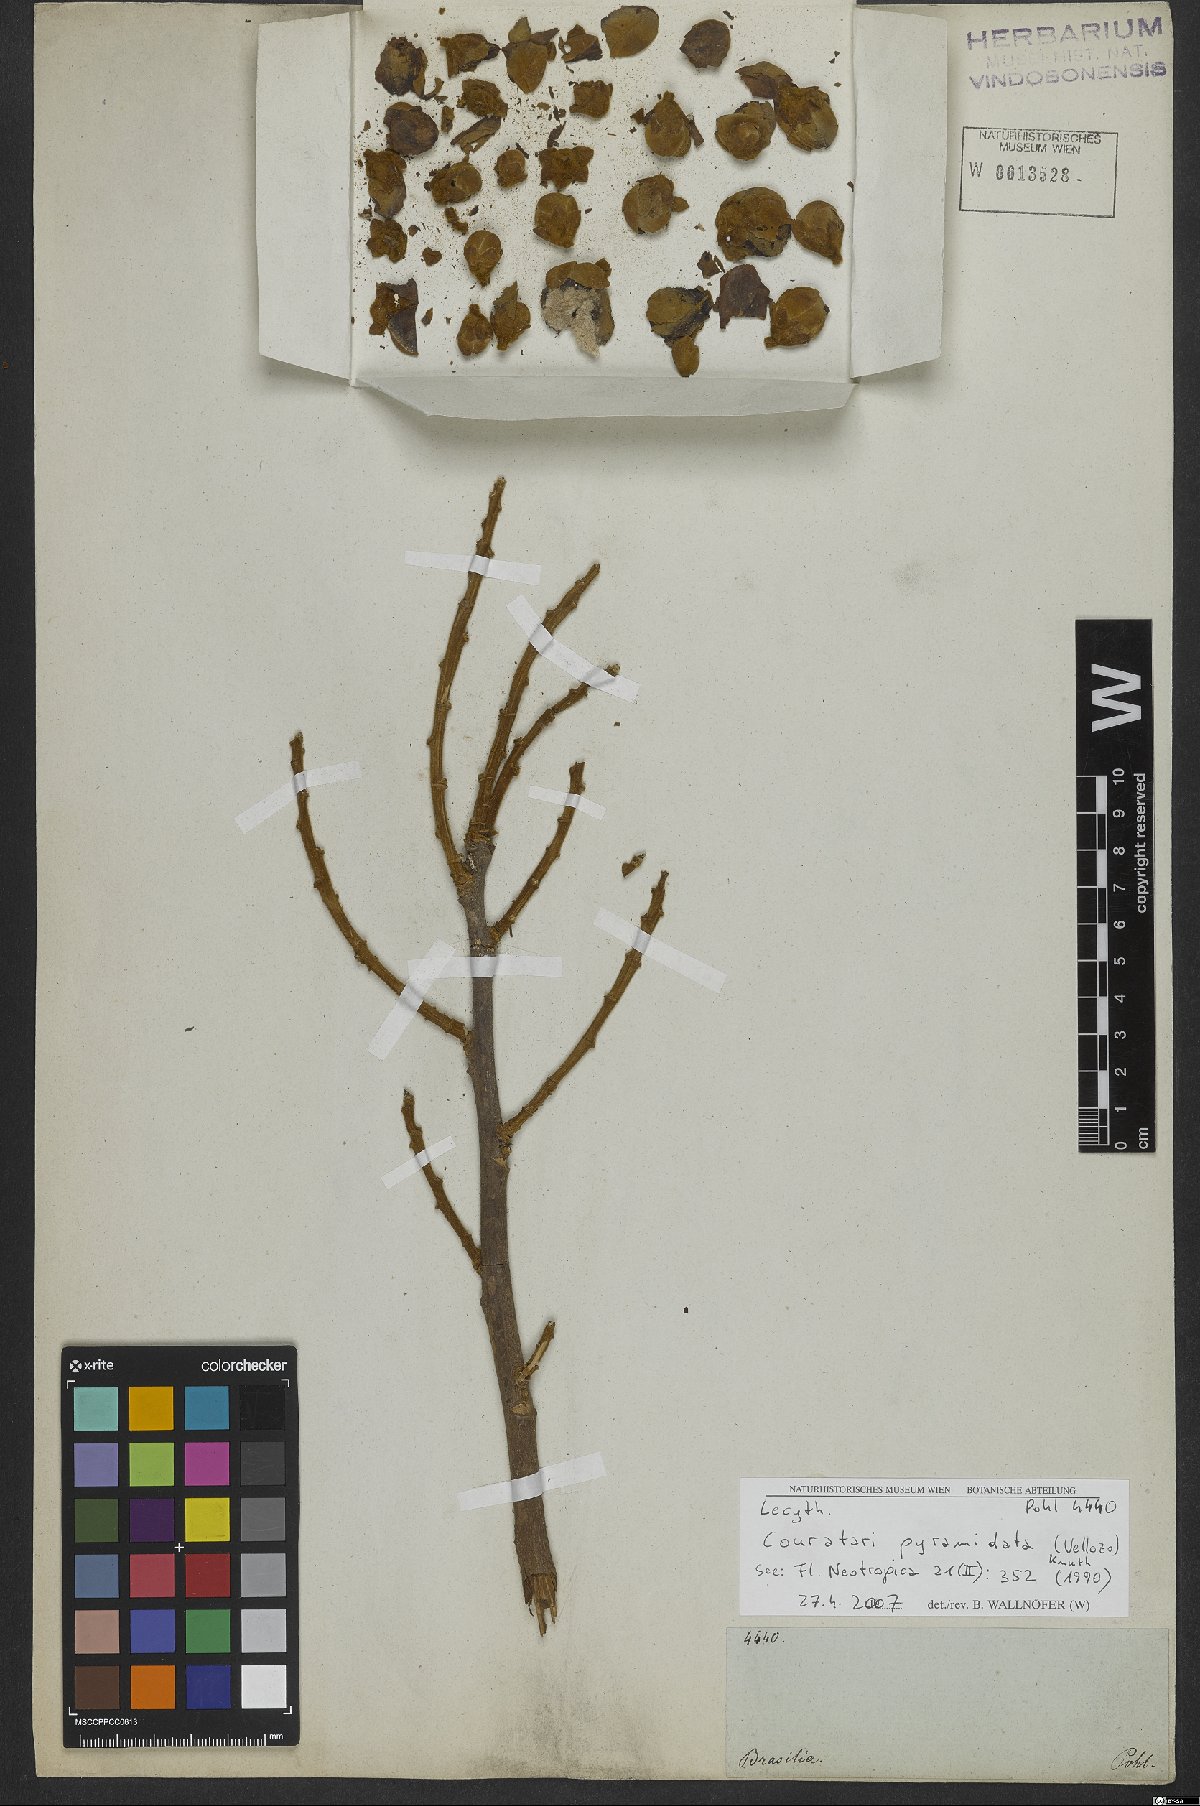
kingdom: Plantae
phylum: Tracheophyta
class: Magnoliopsida
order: Ericales
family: Lecythidaceae
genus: Couratari
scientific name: Couratari pyramidata
